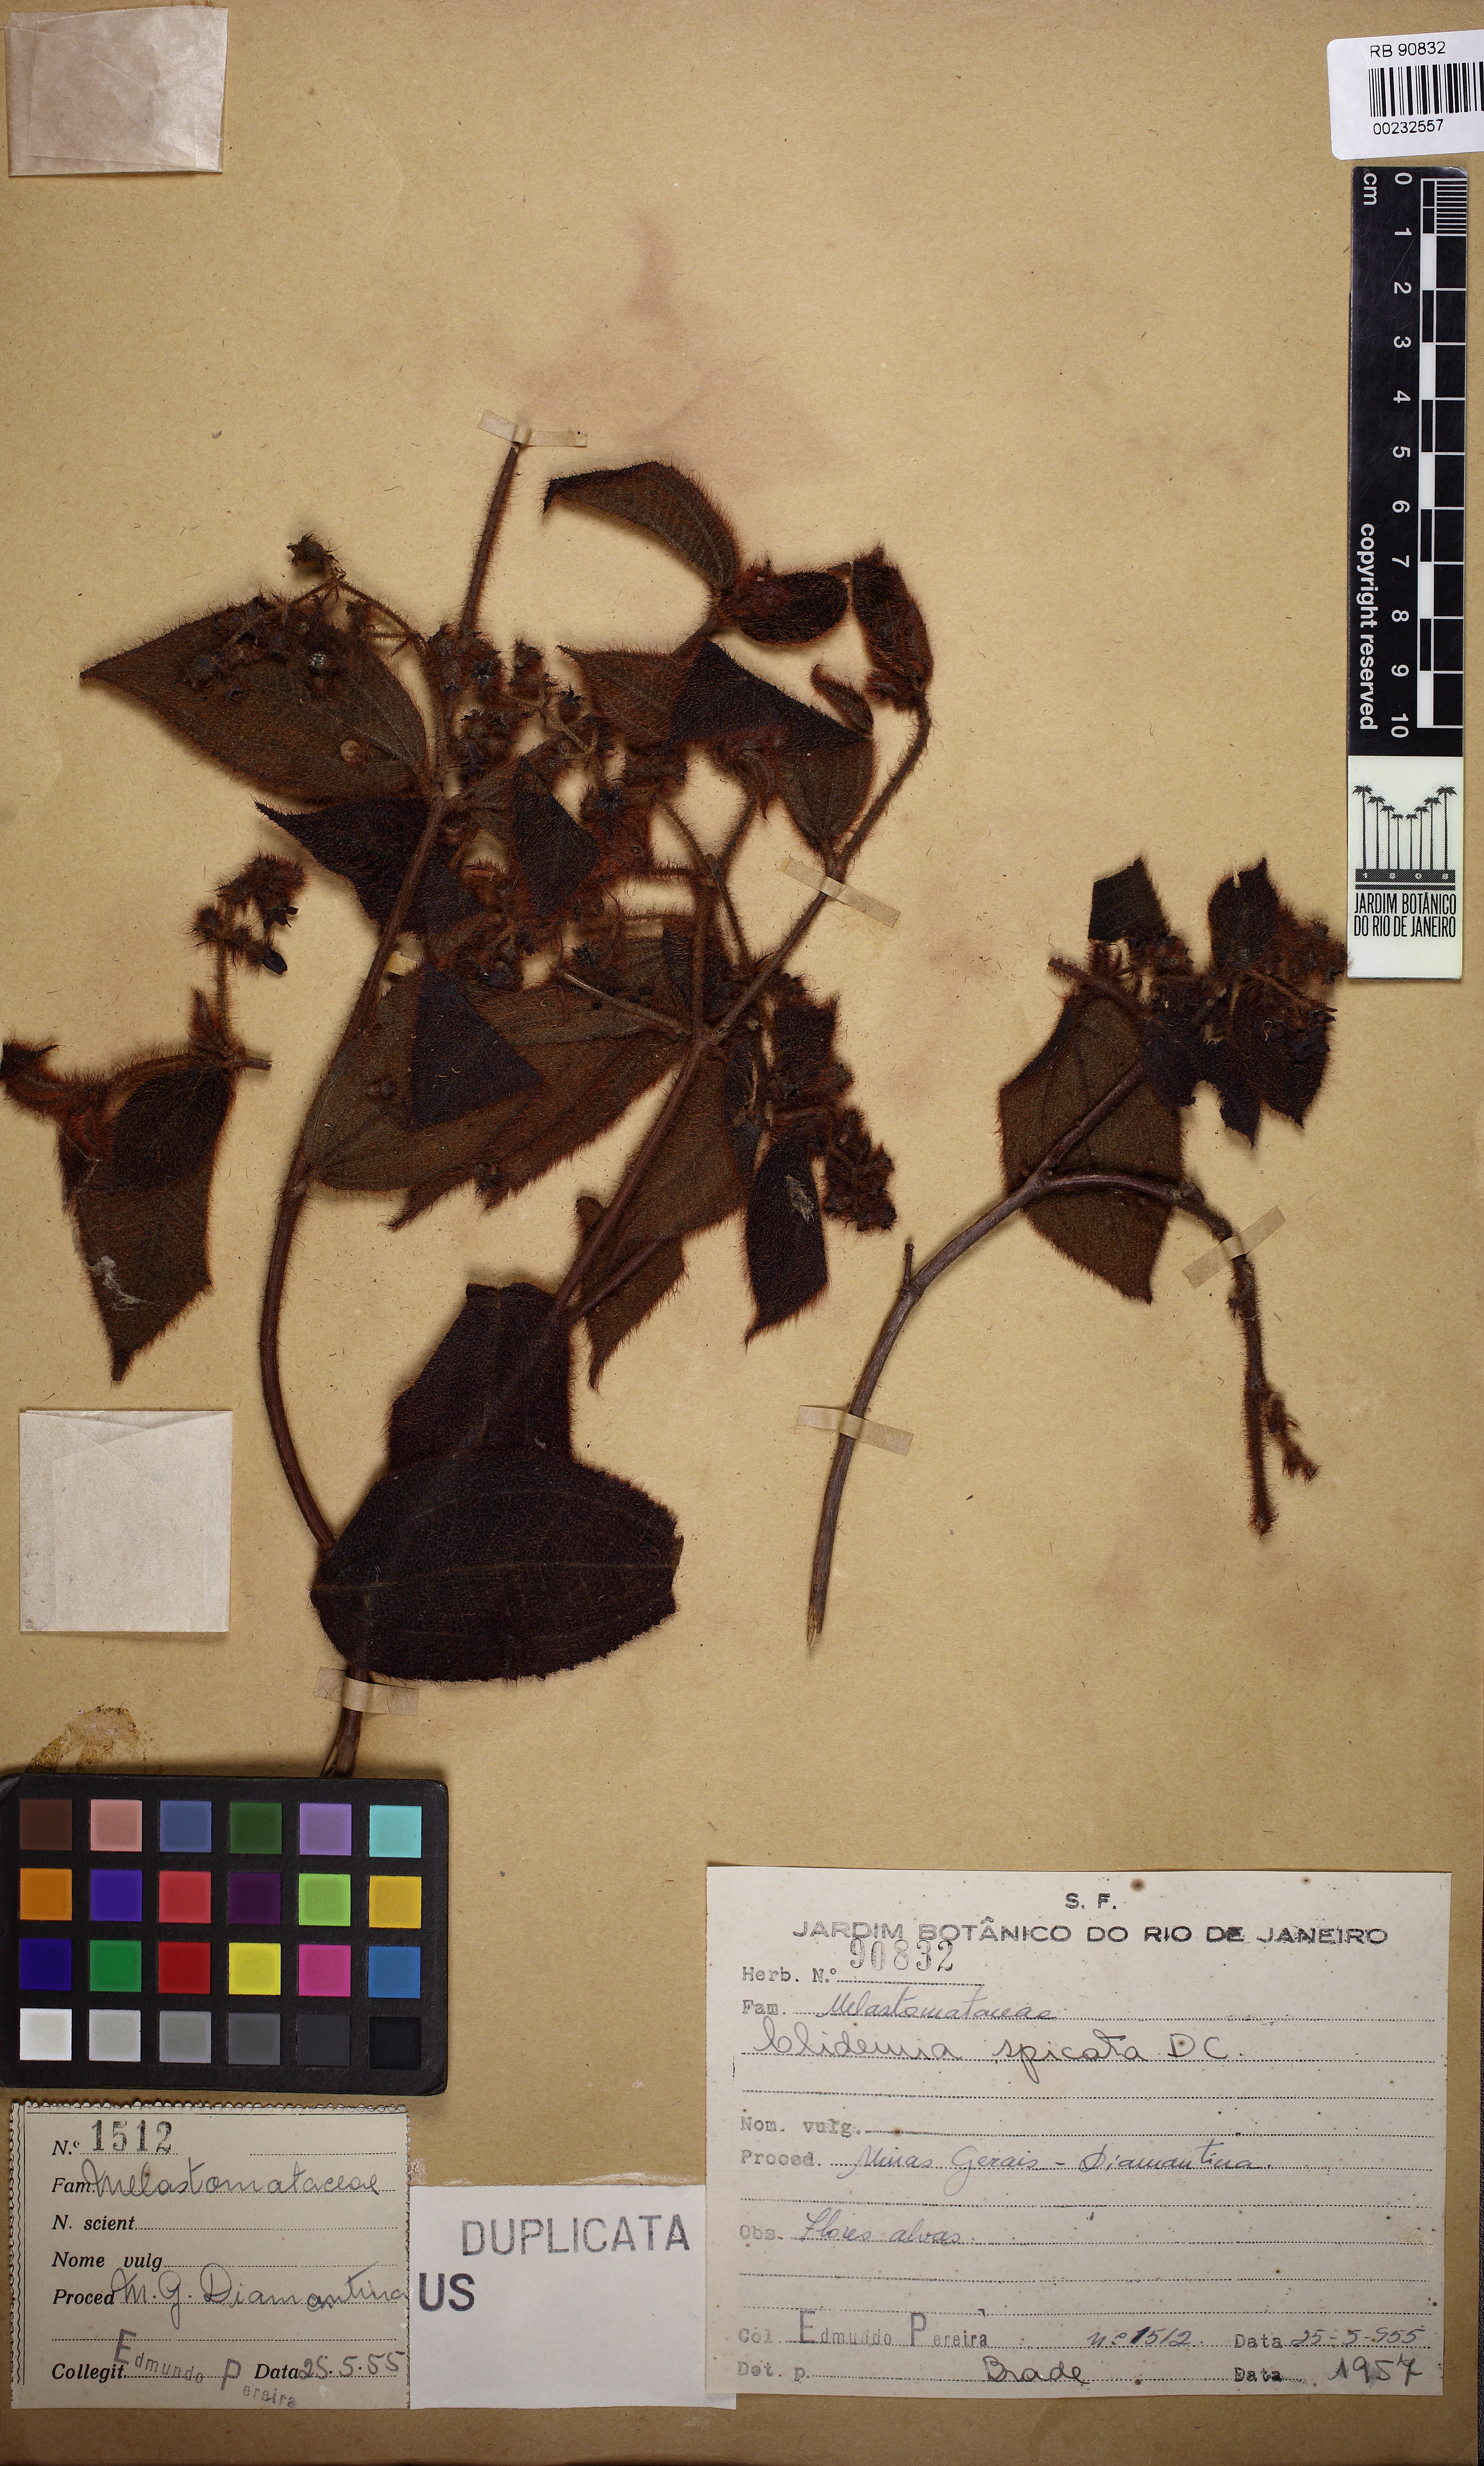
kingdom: Plantae
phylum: Tracheophyta
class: Magnoliopsida
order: Myrtales
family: Melastomataceae
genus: Miconia
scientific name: Miconia dependens
